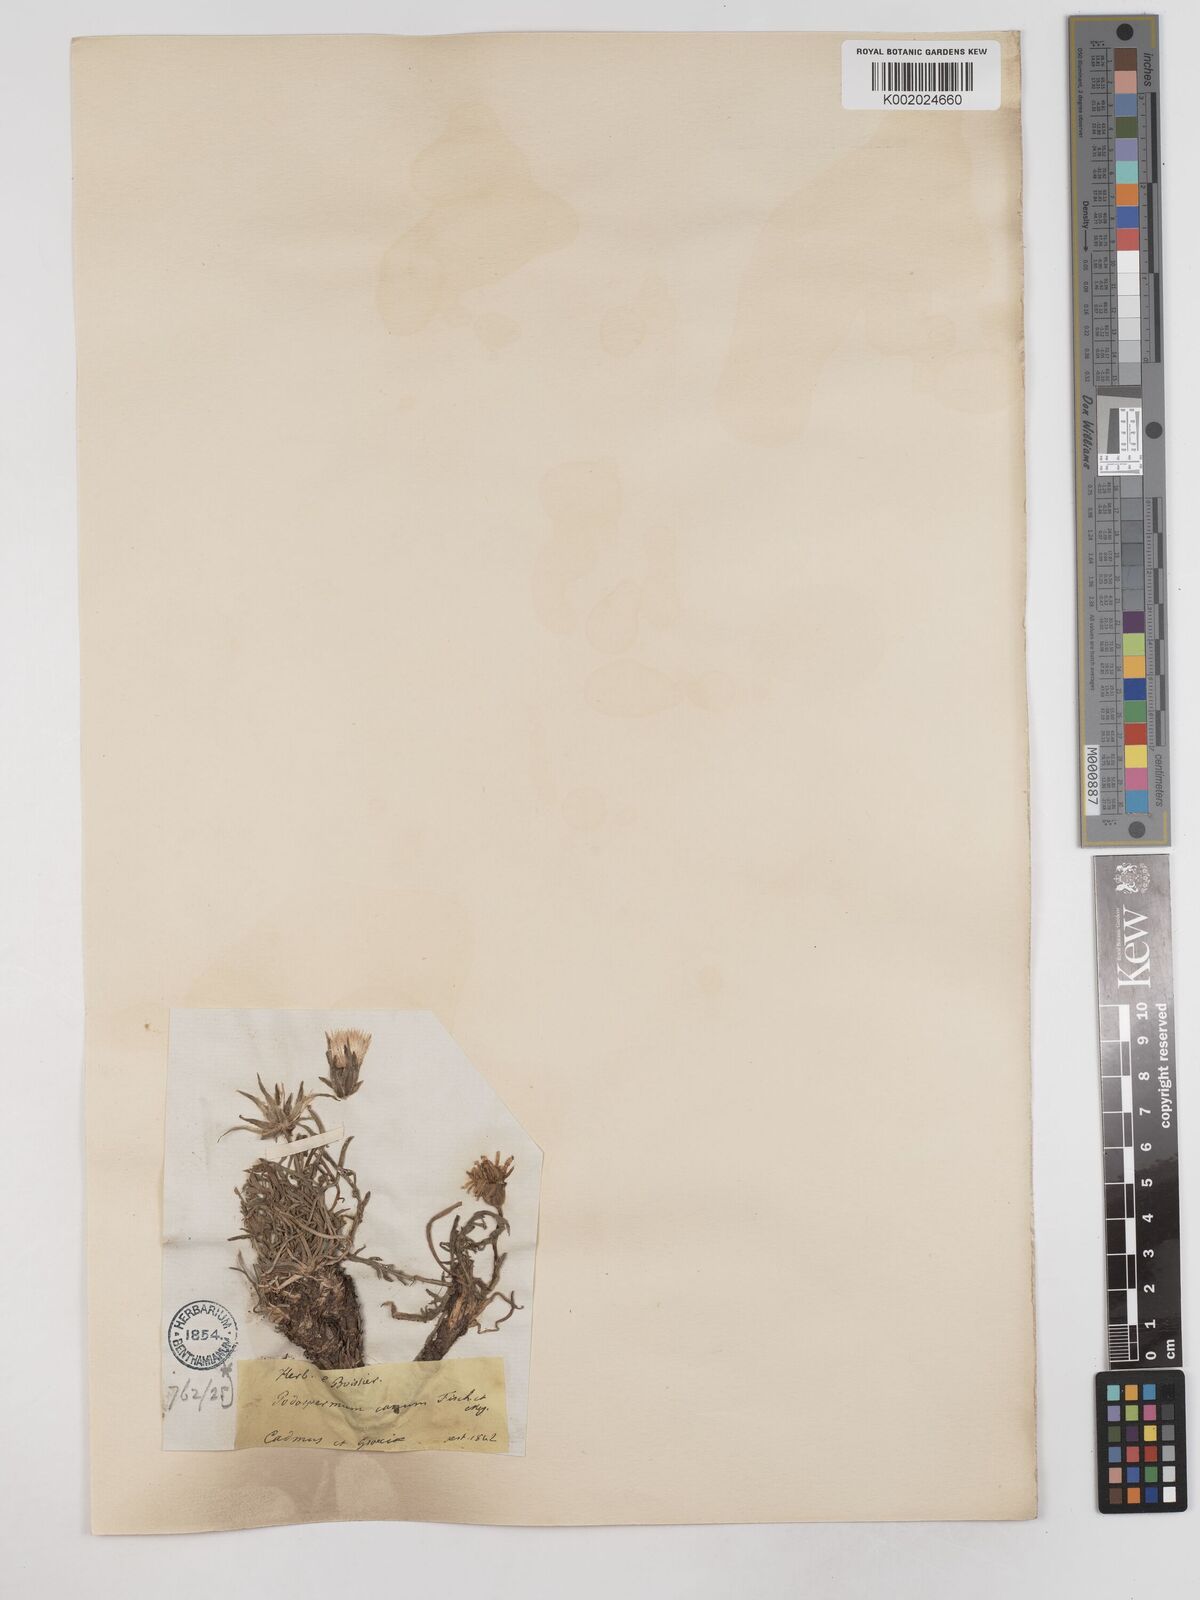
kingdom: Plantae
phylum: Tracheophyta
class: Magnoliopsida
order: Asterales
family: Asteraceae
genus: Scorzonera
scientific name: Scorzonera cana
